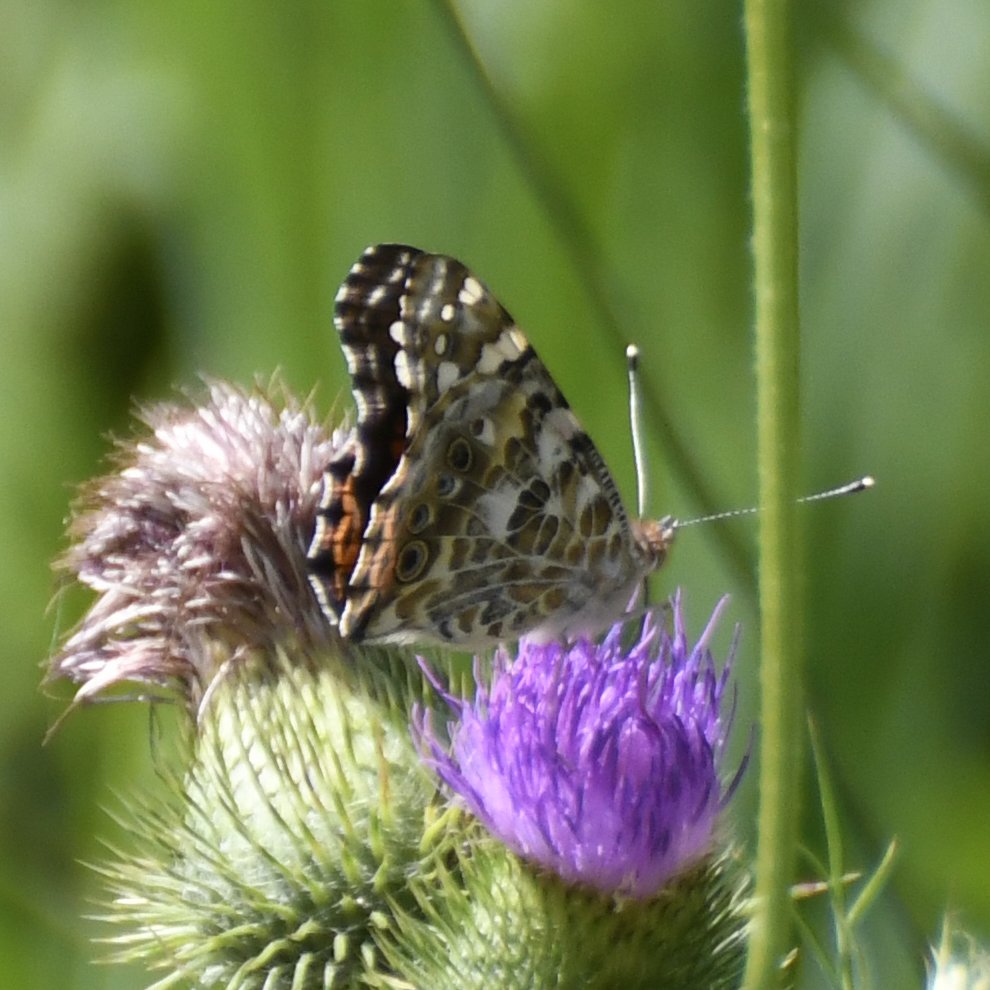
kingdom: Animalia
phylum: Arthropoda
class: Insecta
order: Lepidoptera
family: Nymphalidae
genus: Vanessa
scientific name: Vanessa cardui
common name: Painted Lady
